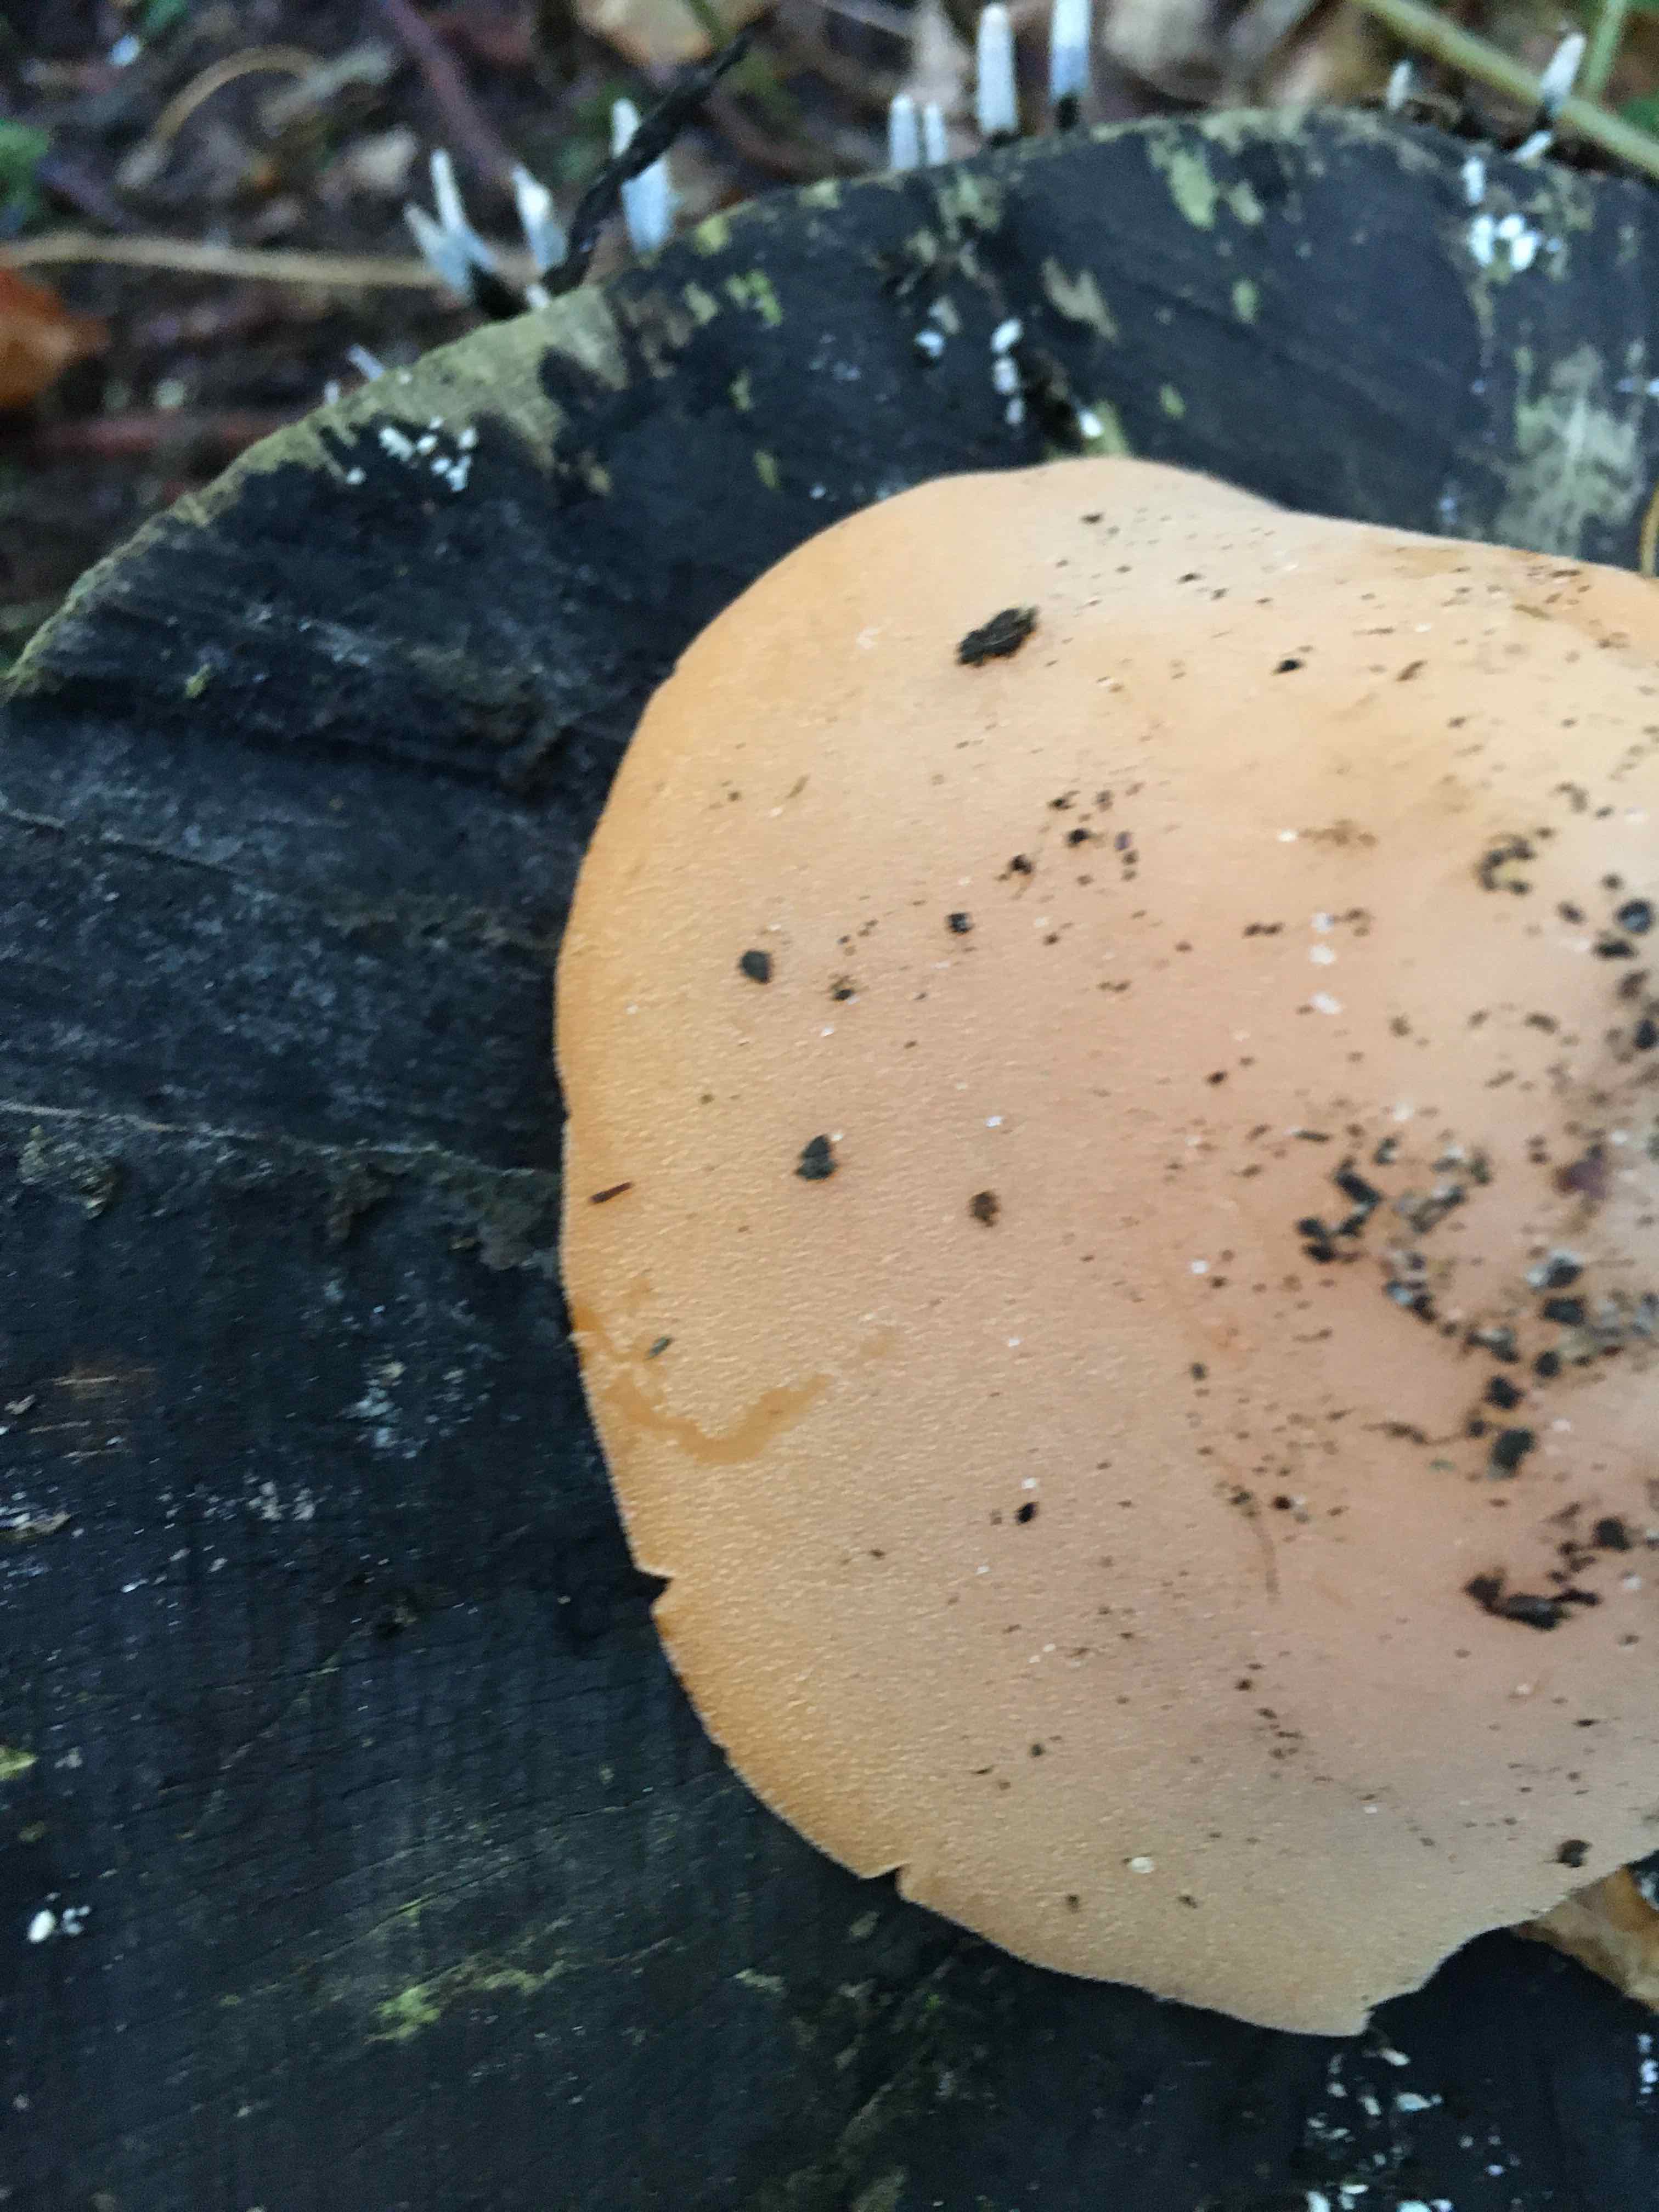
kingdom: Fungi
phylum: Ascomycota
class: Pezizomycetes
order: Pezizales
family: Pyronemataceae
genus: Aleuria
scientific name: Aleuria aurantia
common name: almindelig orangebæger
